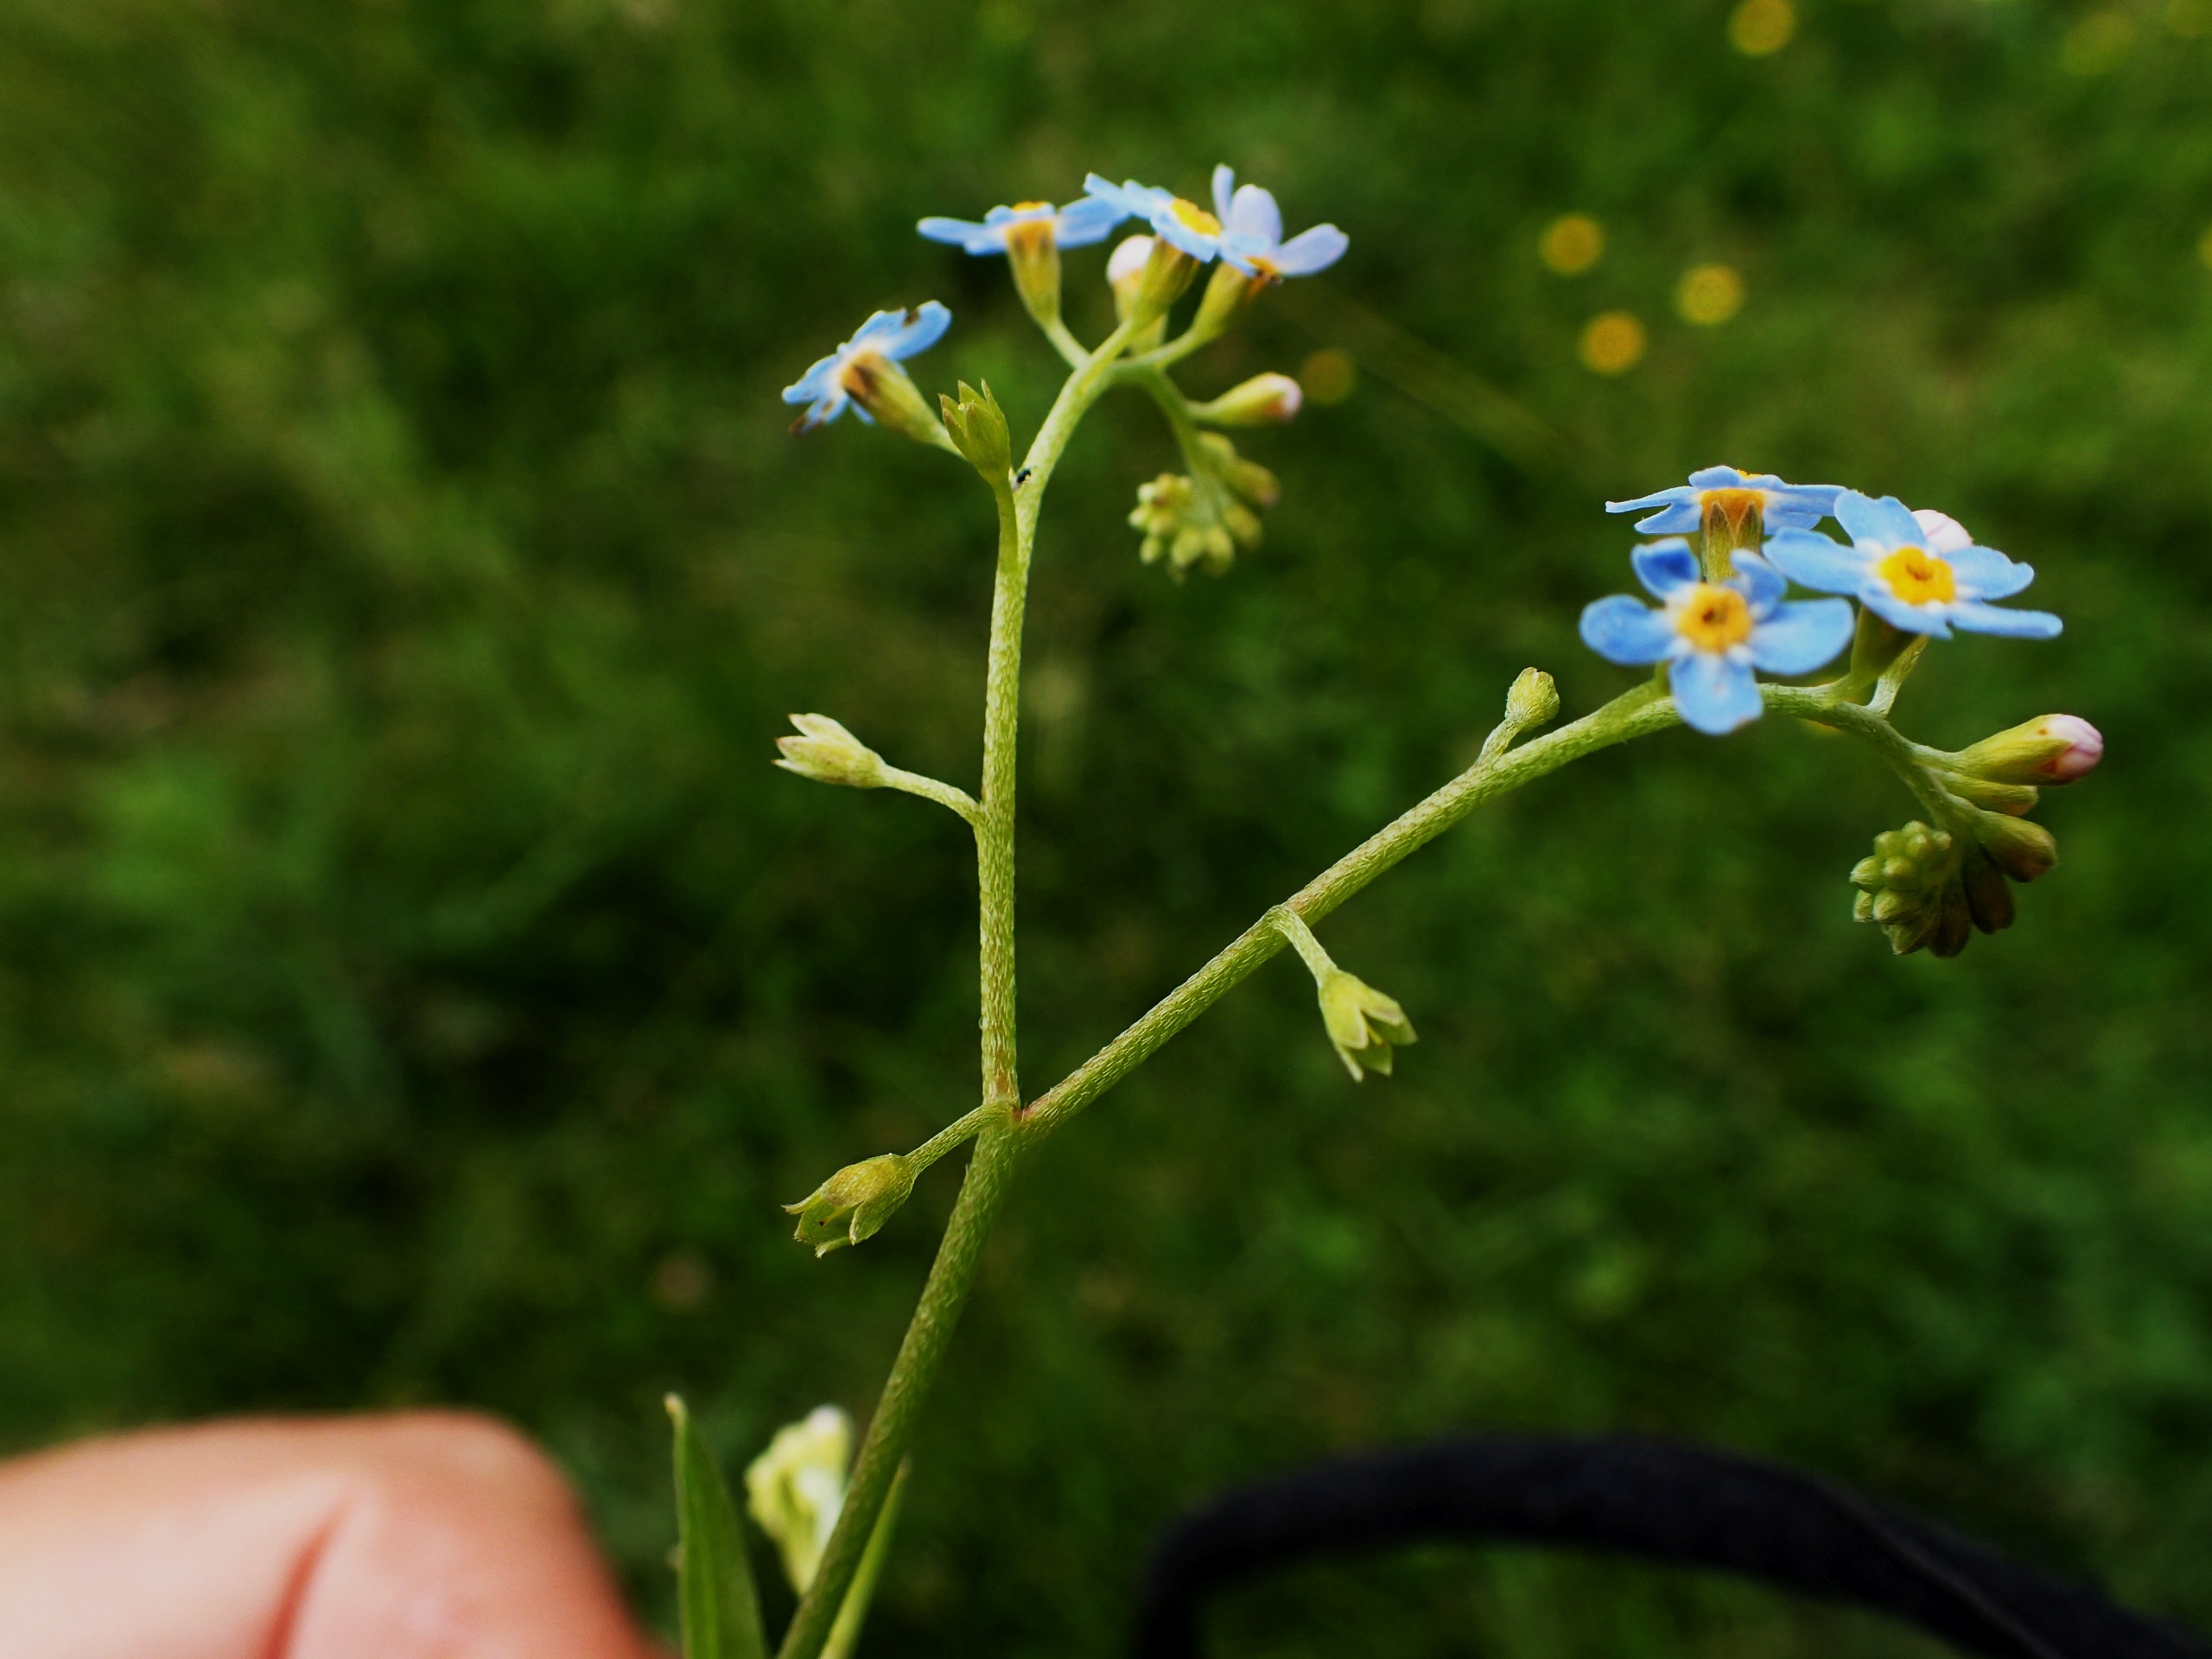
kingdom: Plantae
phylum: Tracheophyta
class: Magnoliopsida
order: Boraginales
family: Boraginaceae
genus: Myosotis
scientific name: Myosotis scorpioides
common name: Eng-forglemmigej
